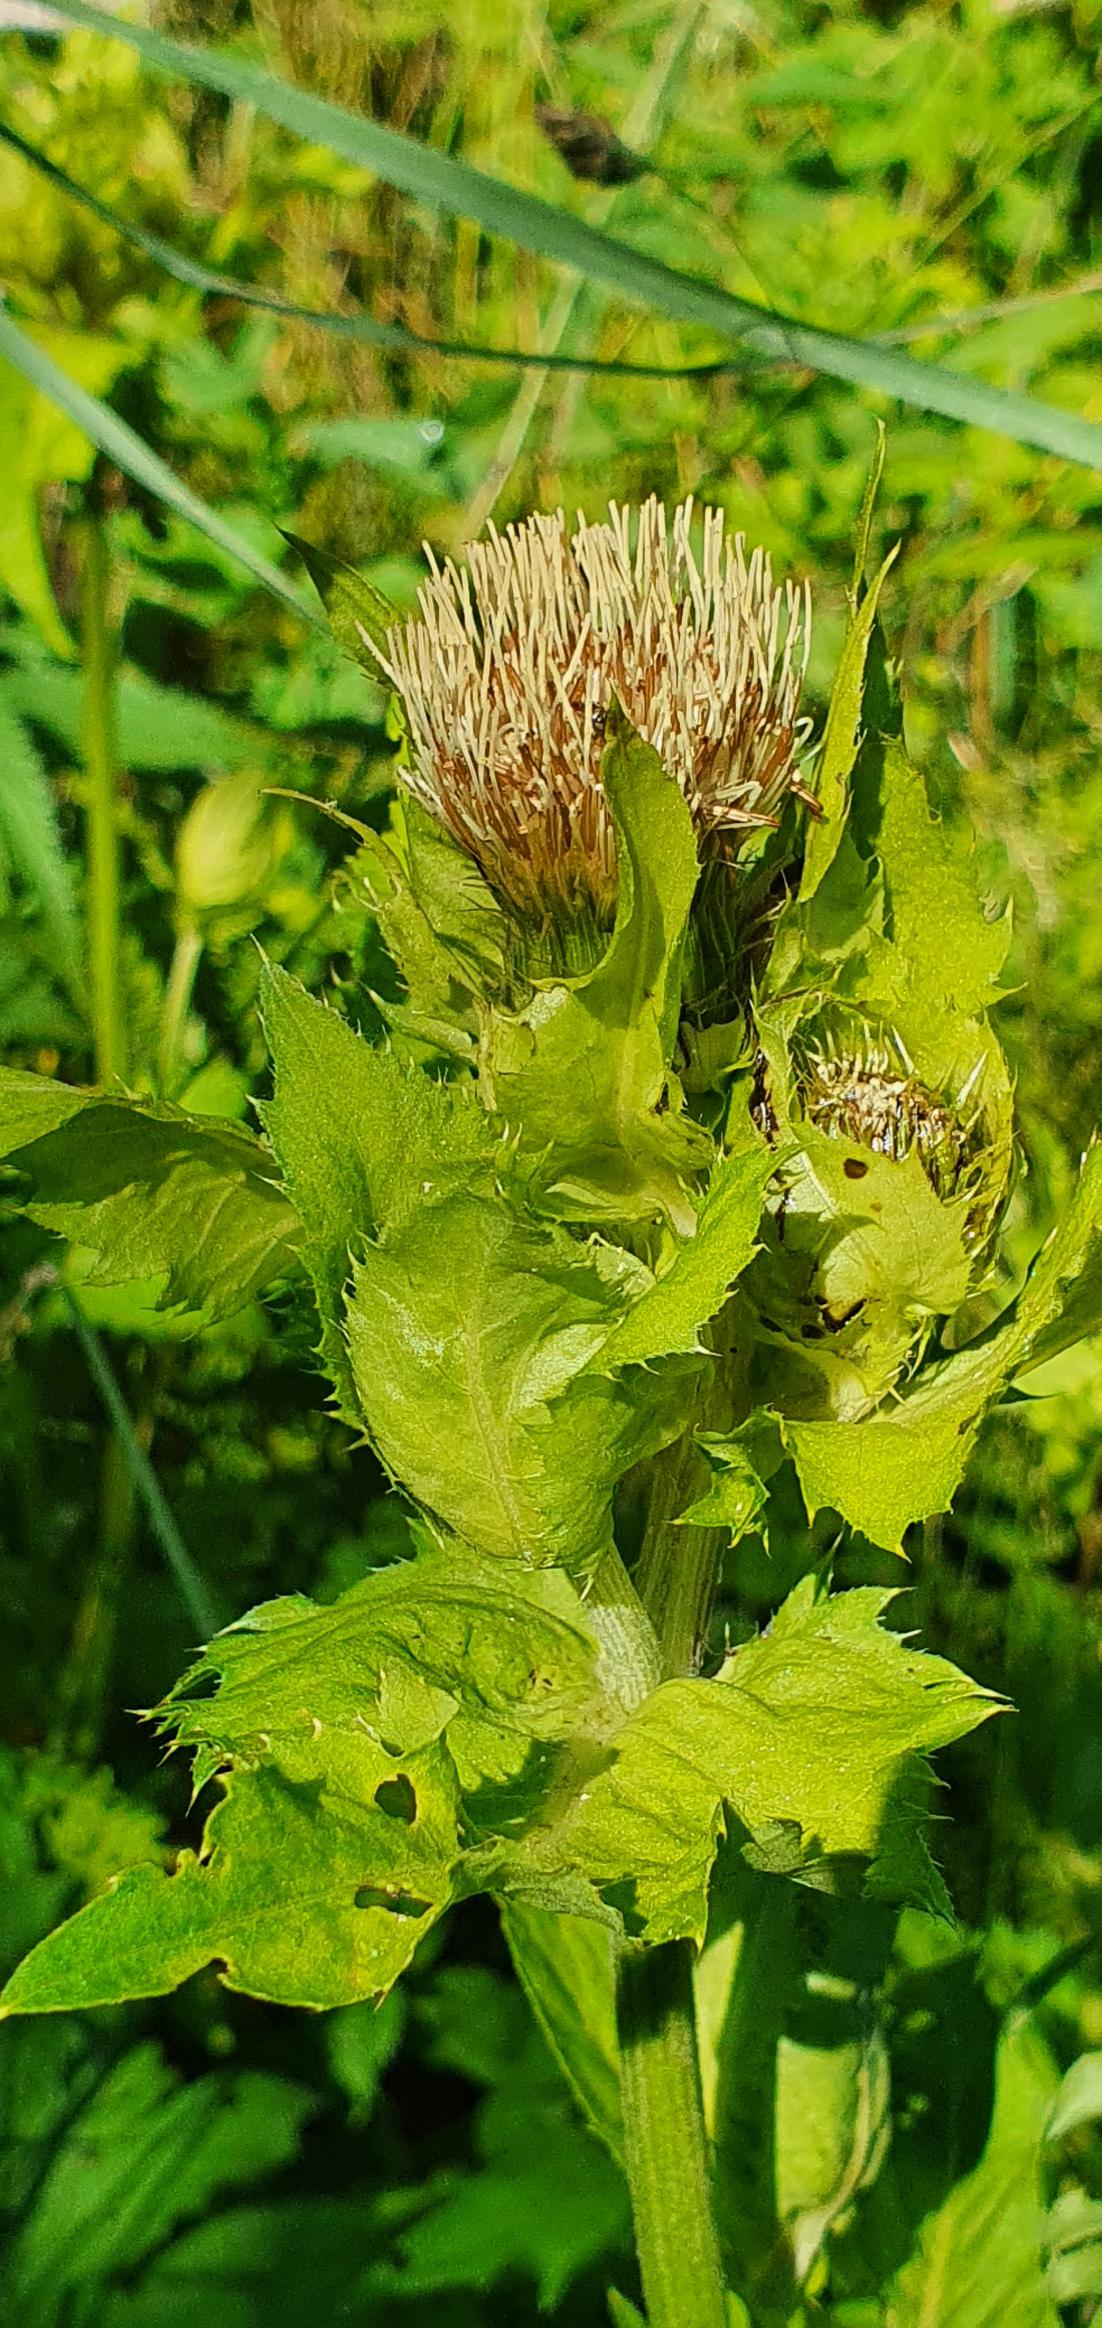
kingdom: Plantae
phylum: Tracheophyta
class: Magnoliopsida
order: Asterales
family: Asteraceae
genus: Cirsium
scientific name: Cirsium oleraceum
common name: Kål-tidsel
